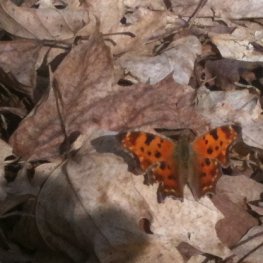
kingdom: Animalia
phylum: Arthropoda
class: Insecta
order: Lepidoptera
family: Nymphalidae
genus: Polygonia
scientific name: Polygonia comma
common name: Eastern Comma
